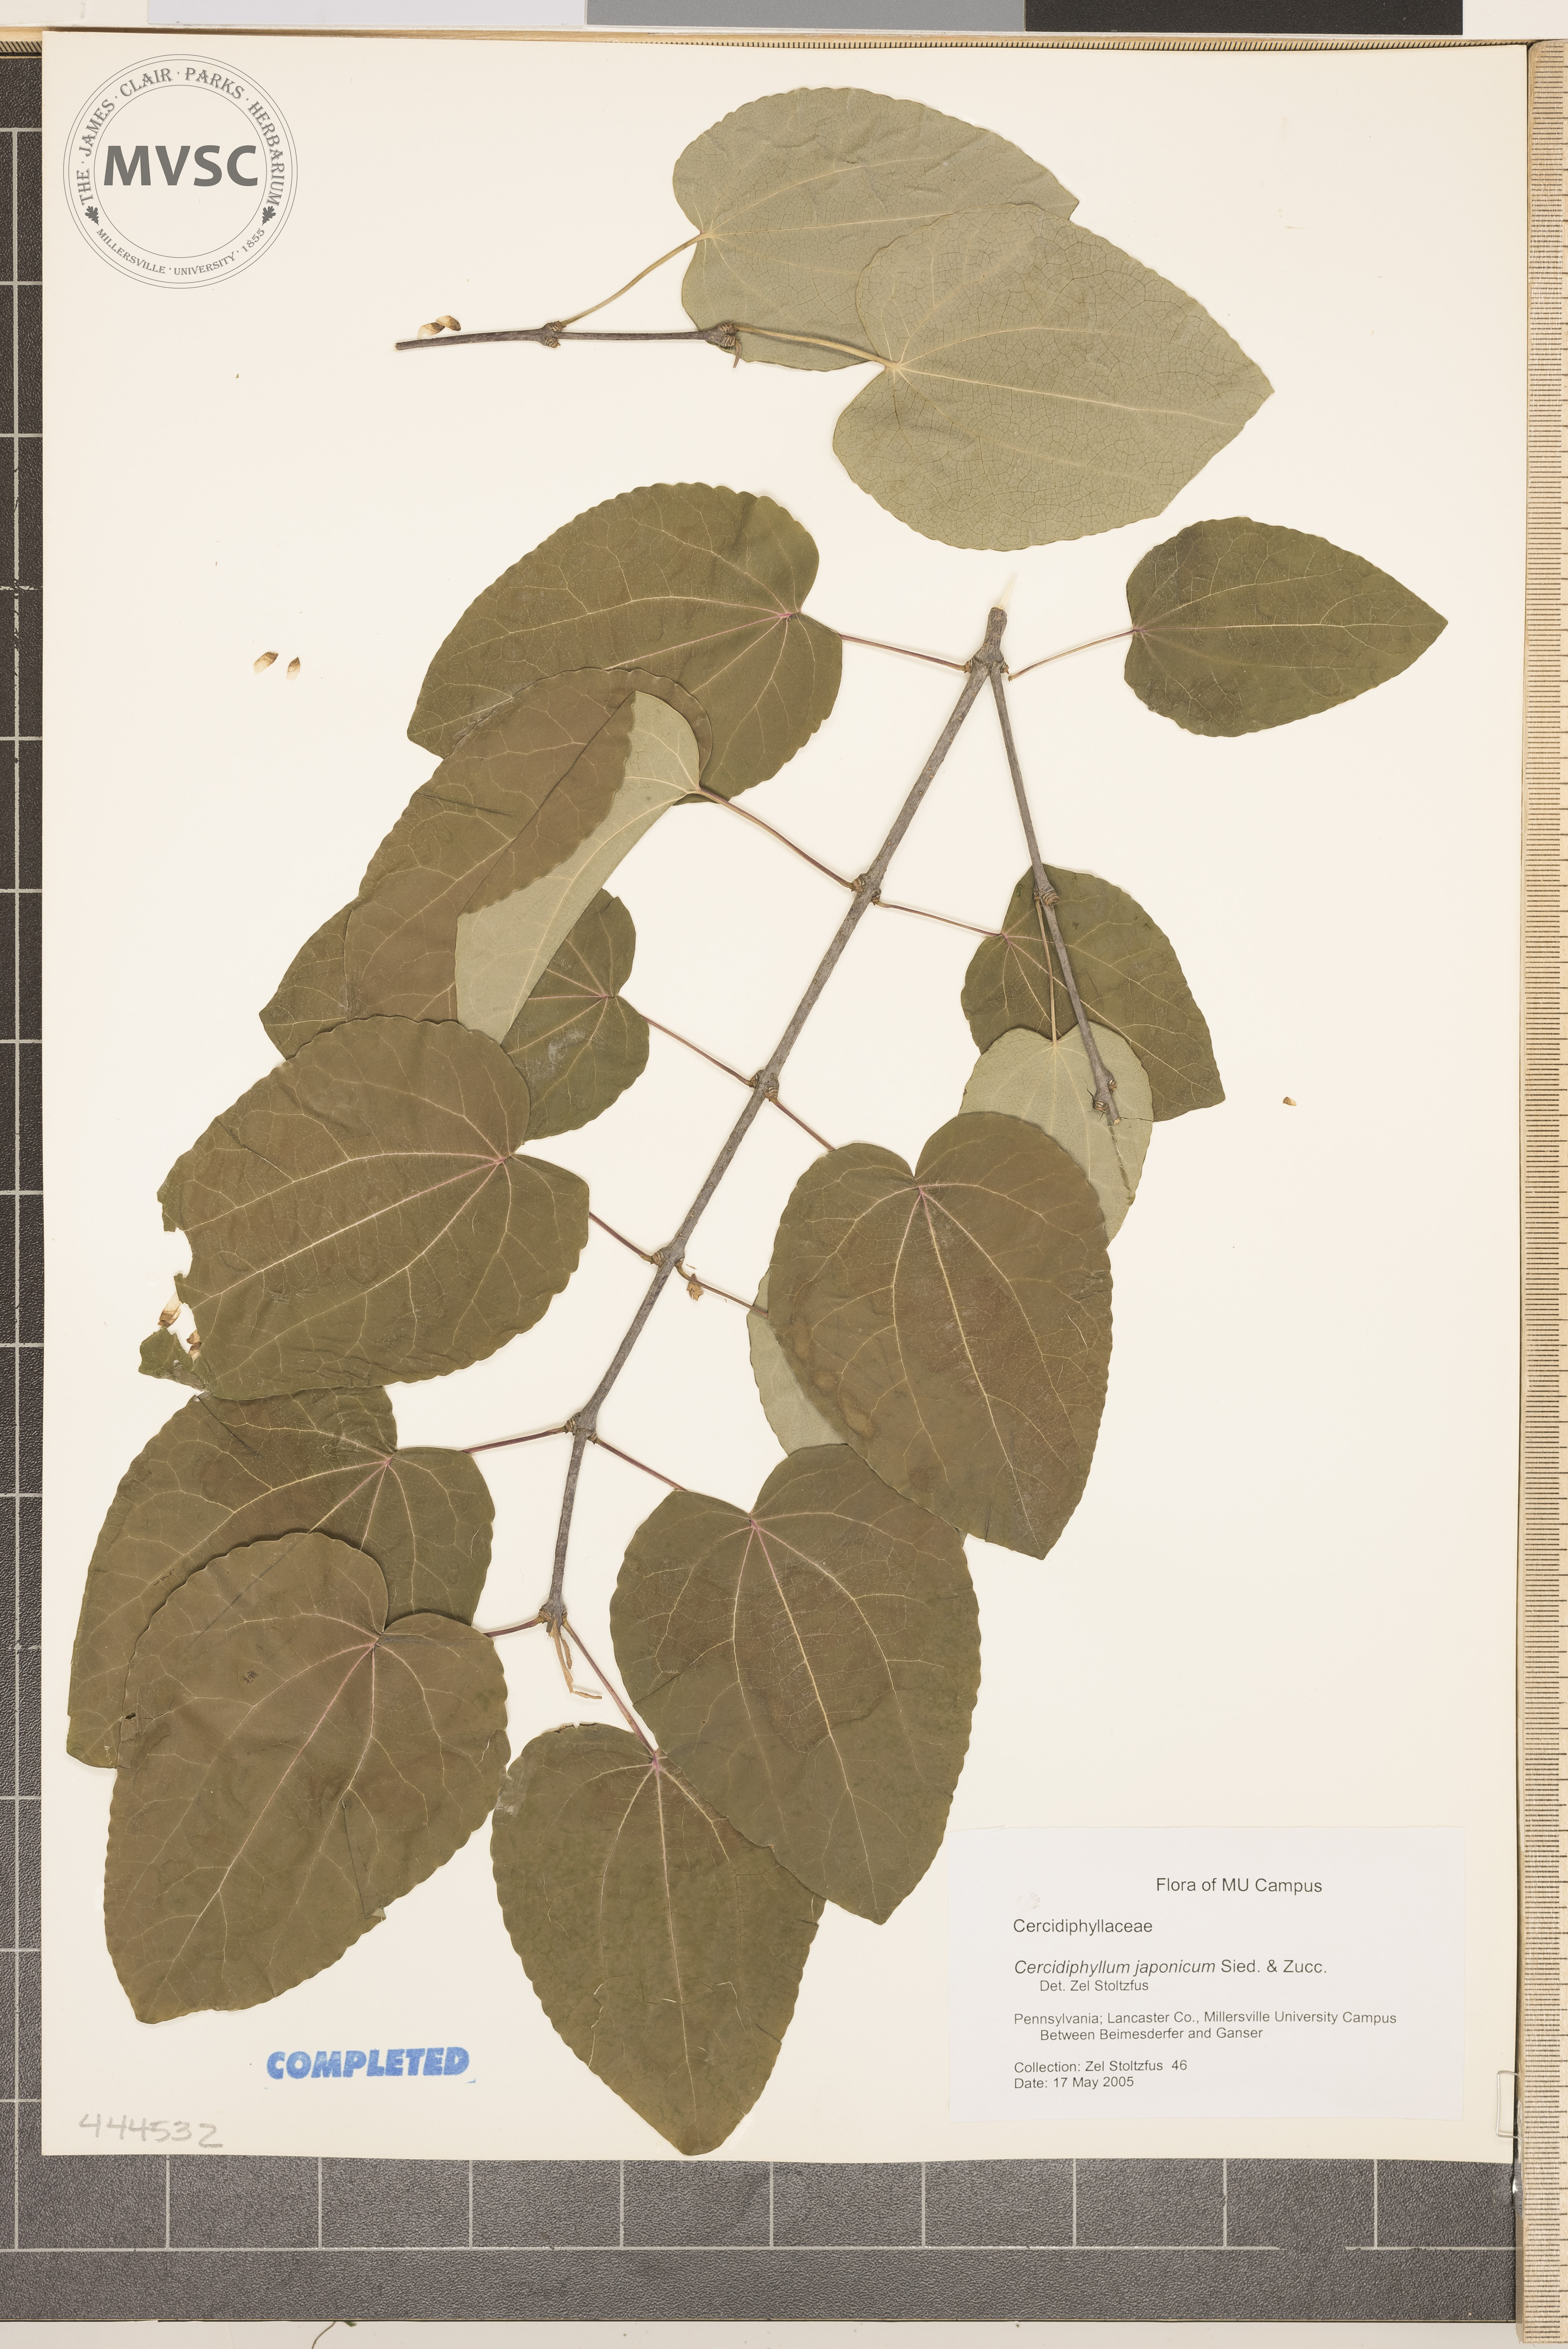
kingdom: Plantae
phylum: Tracheophyta
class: Magnoliopsida
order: Saxifragales
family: Cercidiphyllaceae
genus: Cercidiphyllum
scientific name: Cercidiphyllum japonicum
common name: Katsura tree
